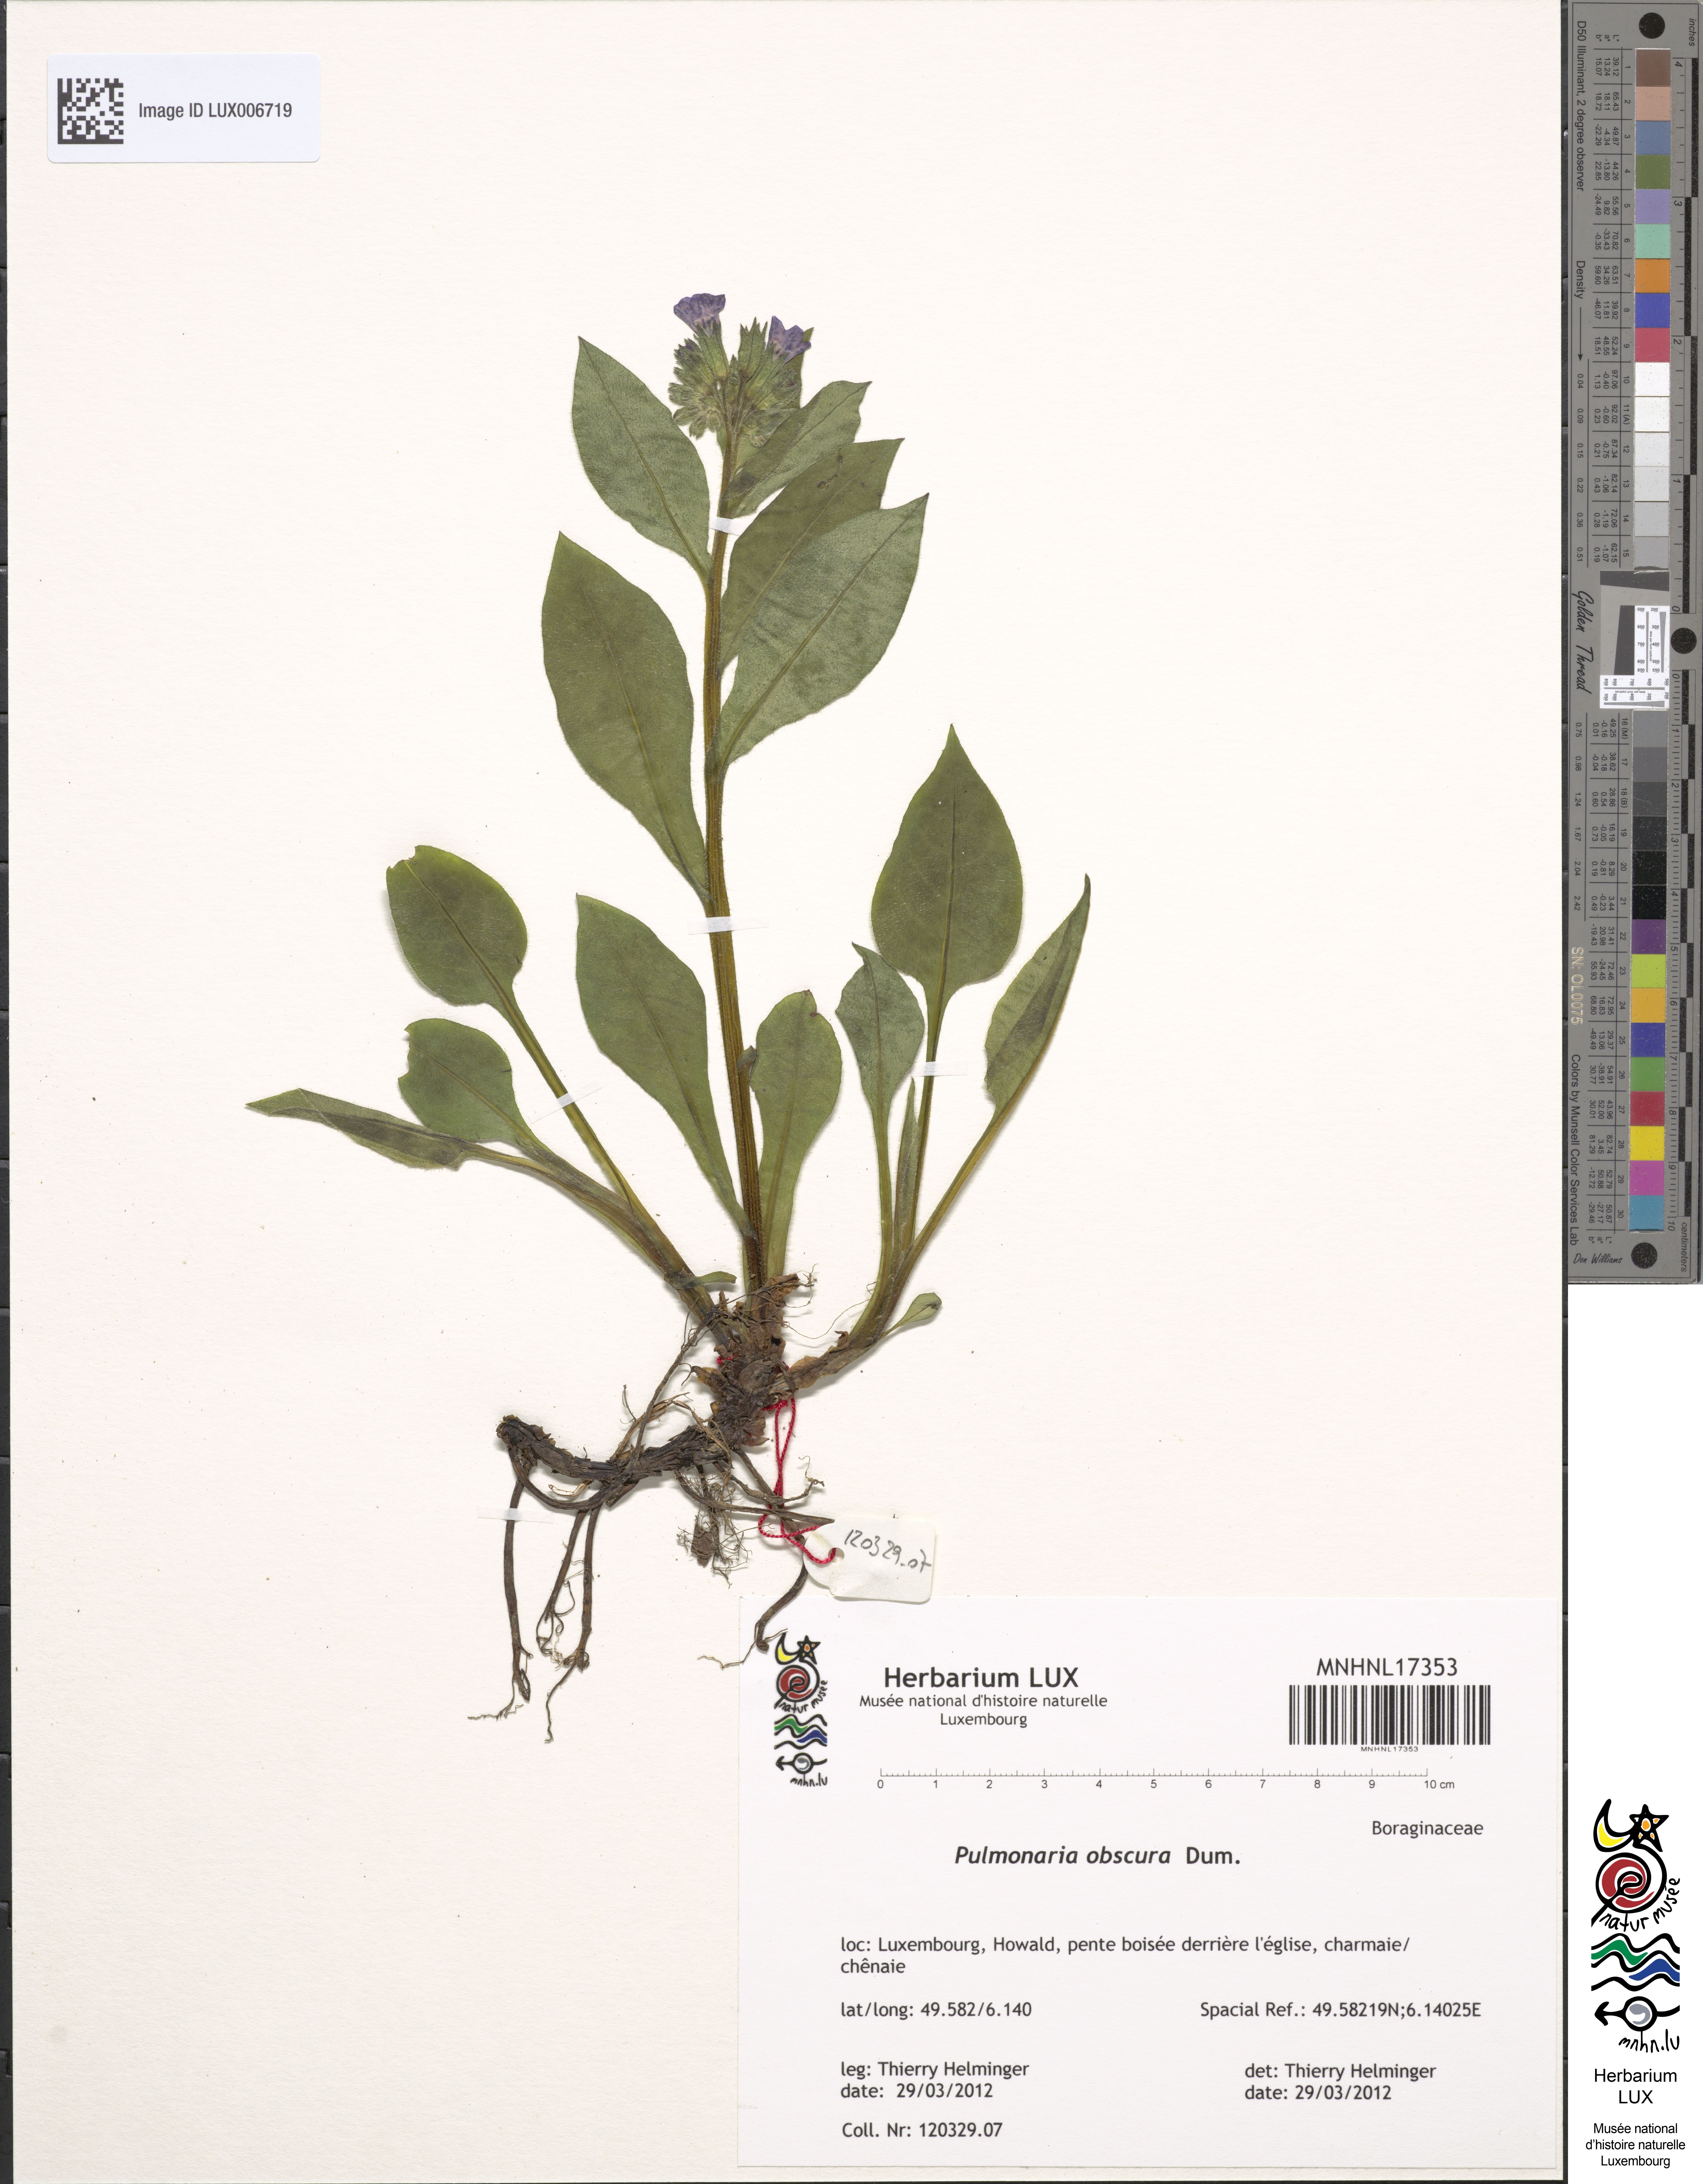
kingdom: Plantae
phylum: Tracheophyta
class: Magnoliopsida
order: Boraginales
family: Boraginaceae
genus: Pulmonaria
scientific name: Pulmonaria obscura
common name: Suffolk lungwort
